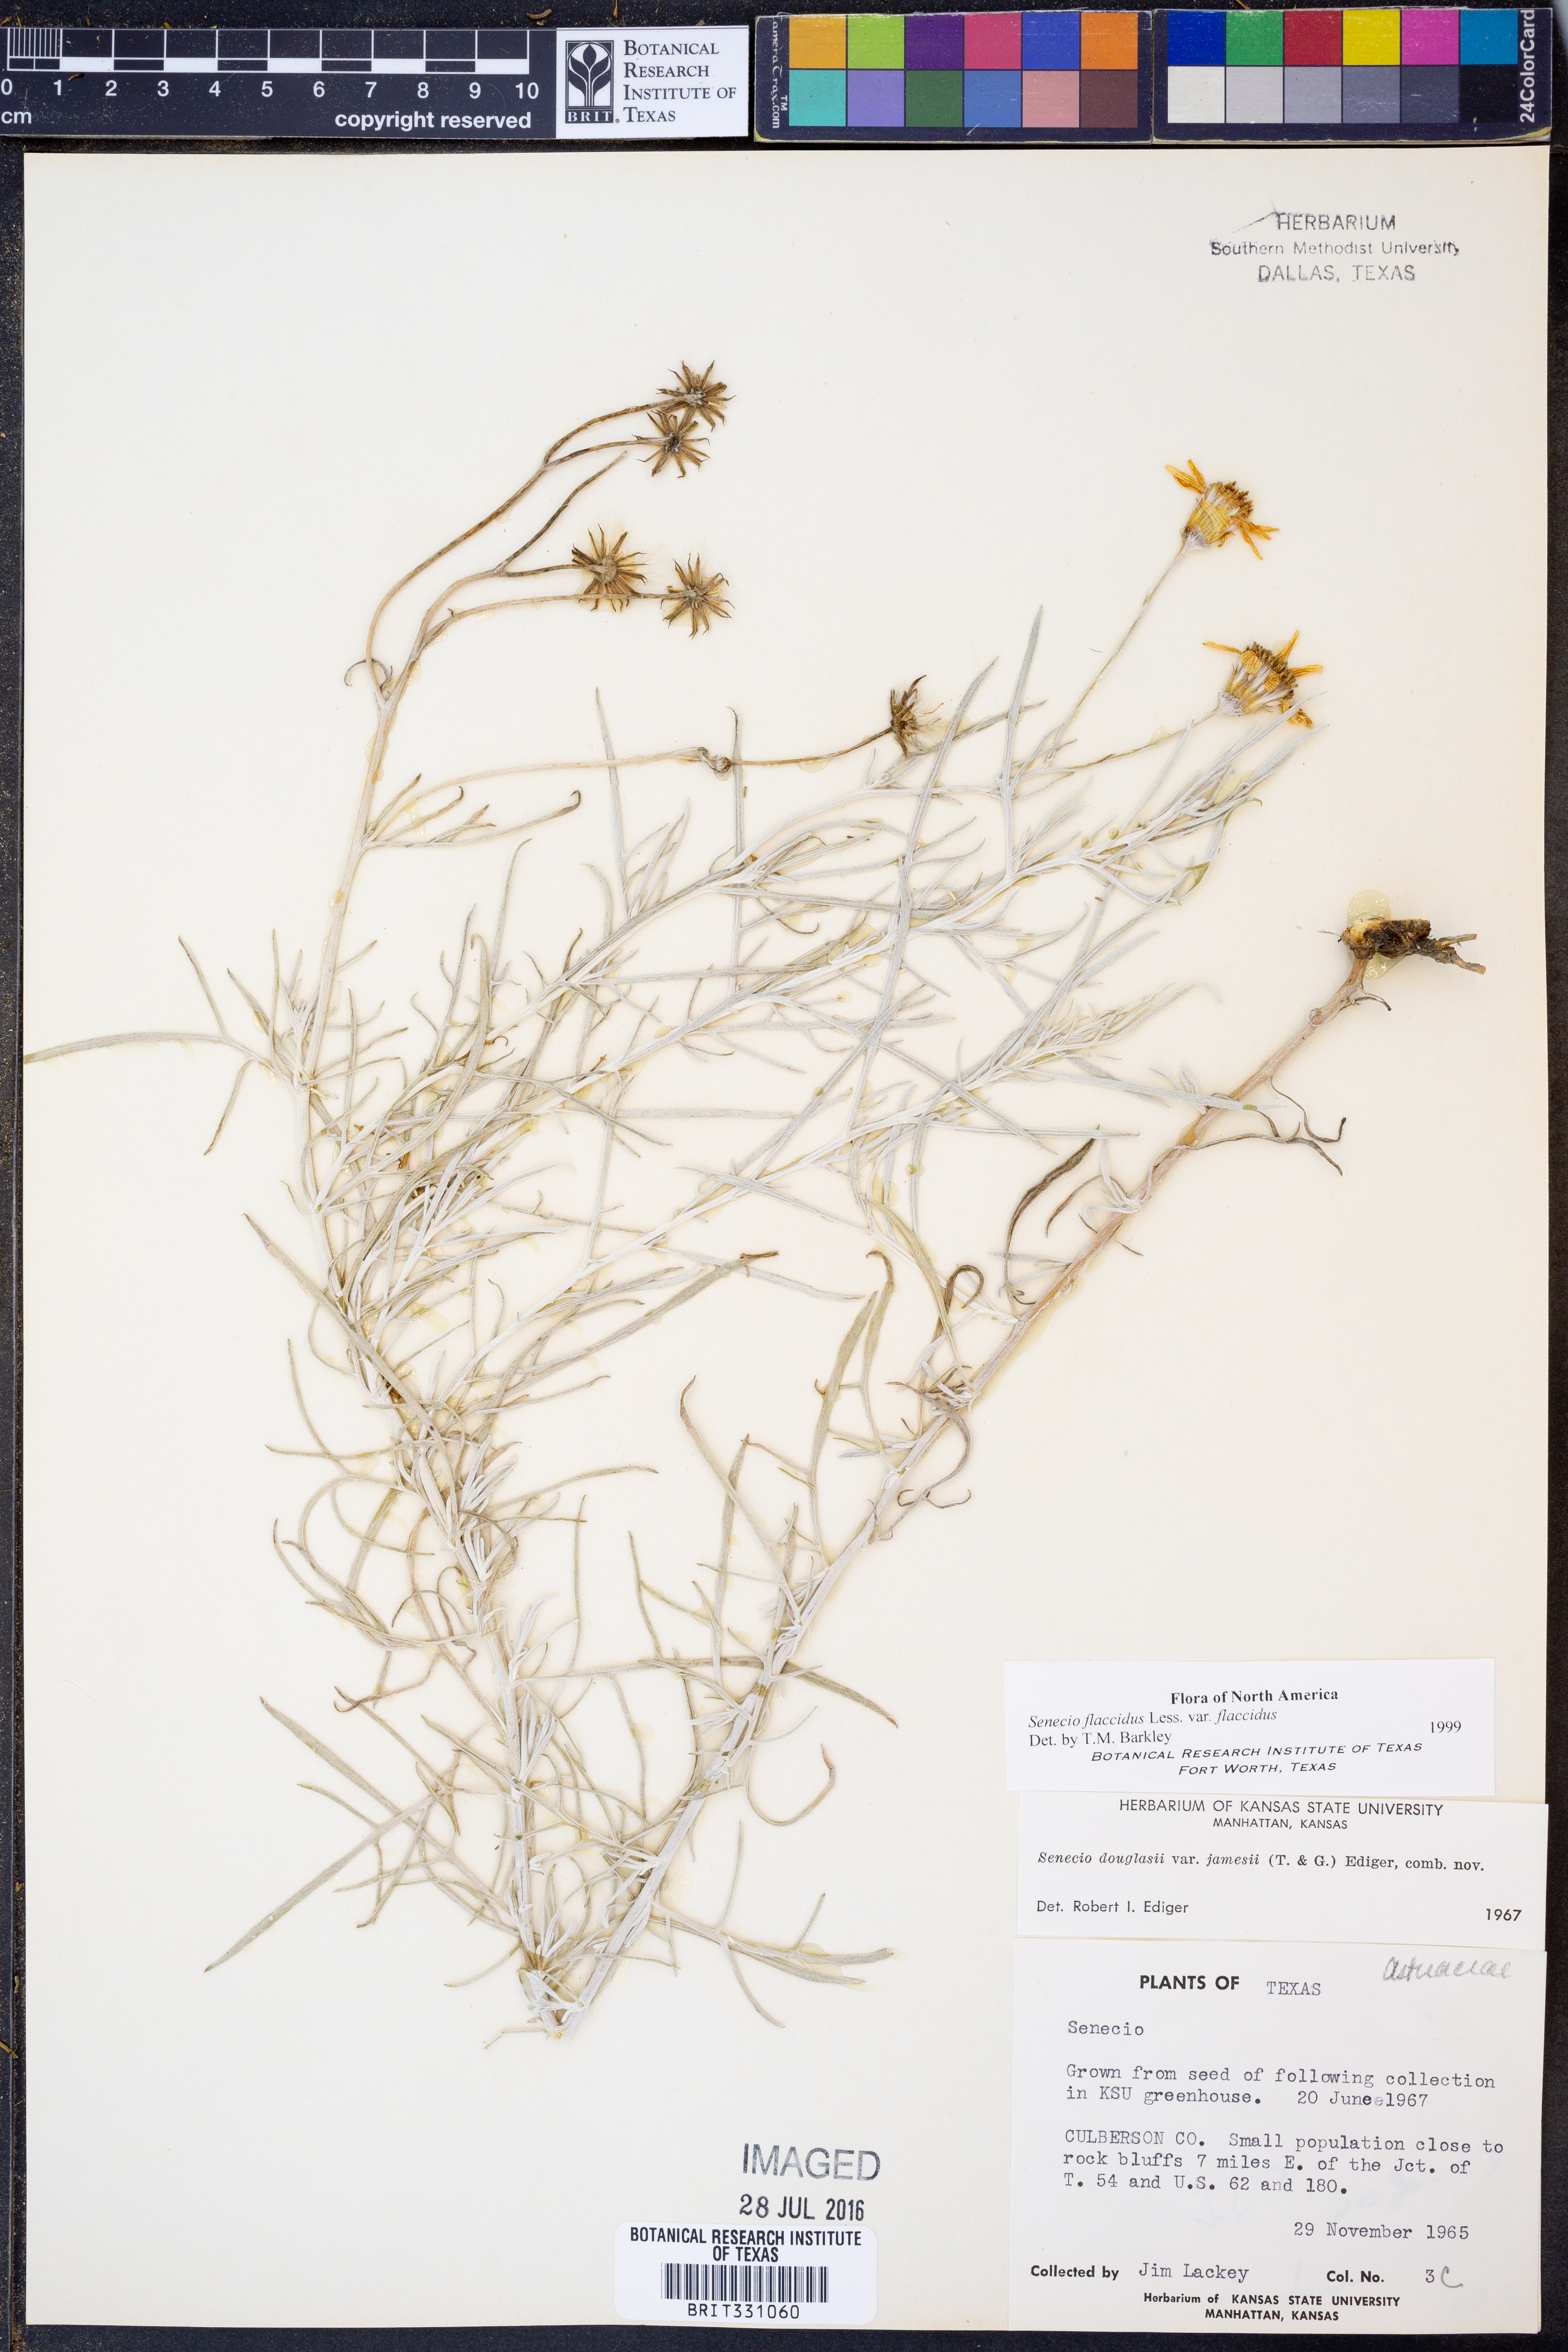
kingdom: Plantae
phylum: Tracheophyta
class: Magnoliopsida
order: Asterales
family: Asteraceae
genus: Senecio
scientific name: Senecio flaccidus
